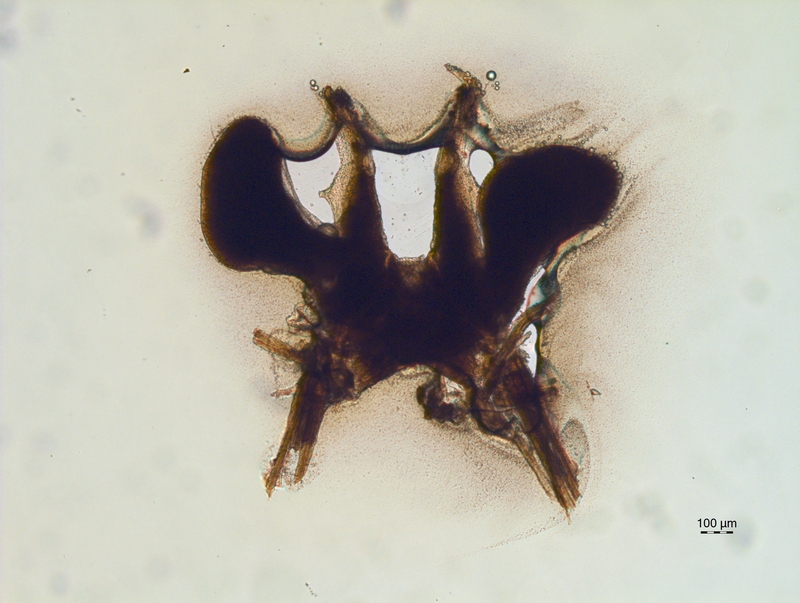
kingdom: Animalia
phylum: Arthropoda
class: Diplopoda
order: Chordeumatida
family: Chordeumatidae
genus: Chordeuma
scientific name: Chordeuma sylvestre
